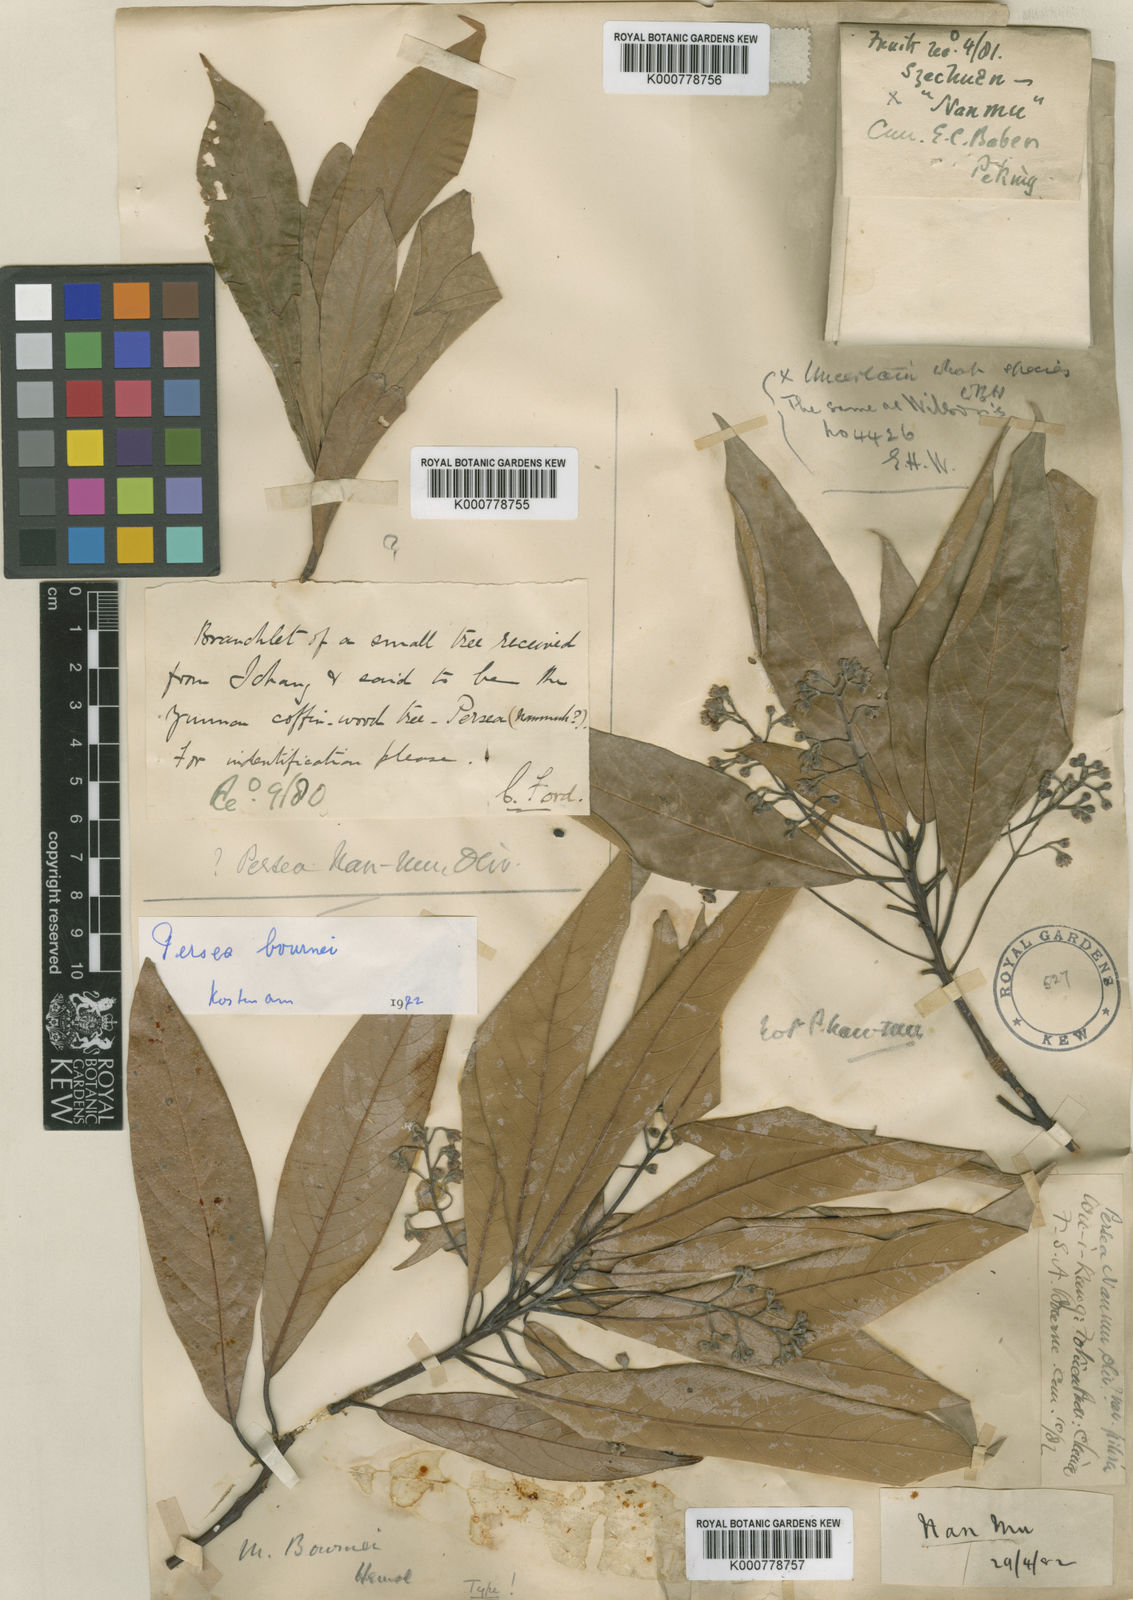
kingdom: Plantae
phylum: Tracheophyta
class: Magnoliopsida
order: Laurales
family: Lauraceae
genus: Phoebe
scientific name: Phoebe bournei
